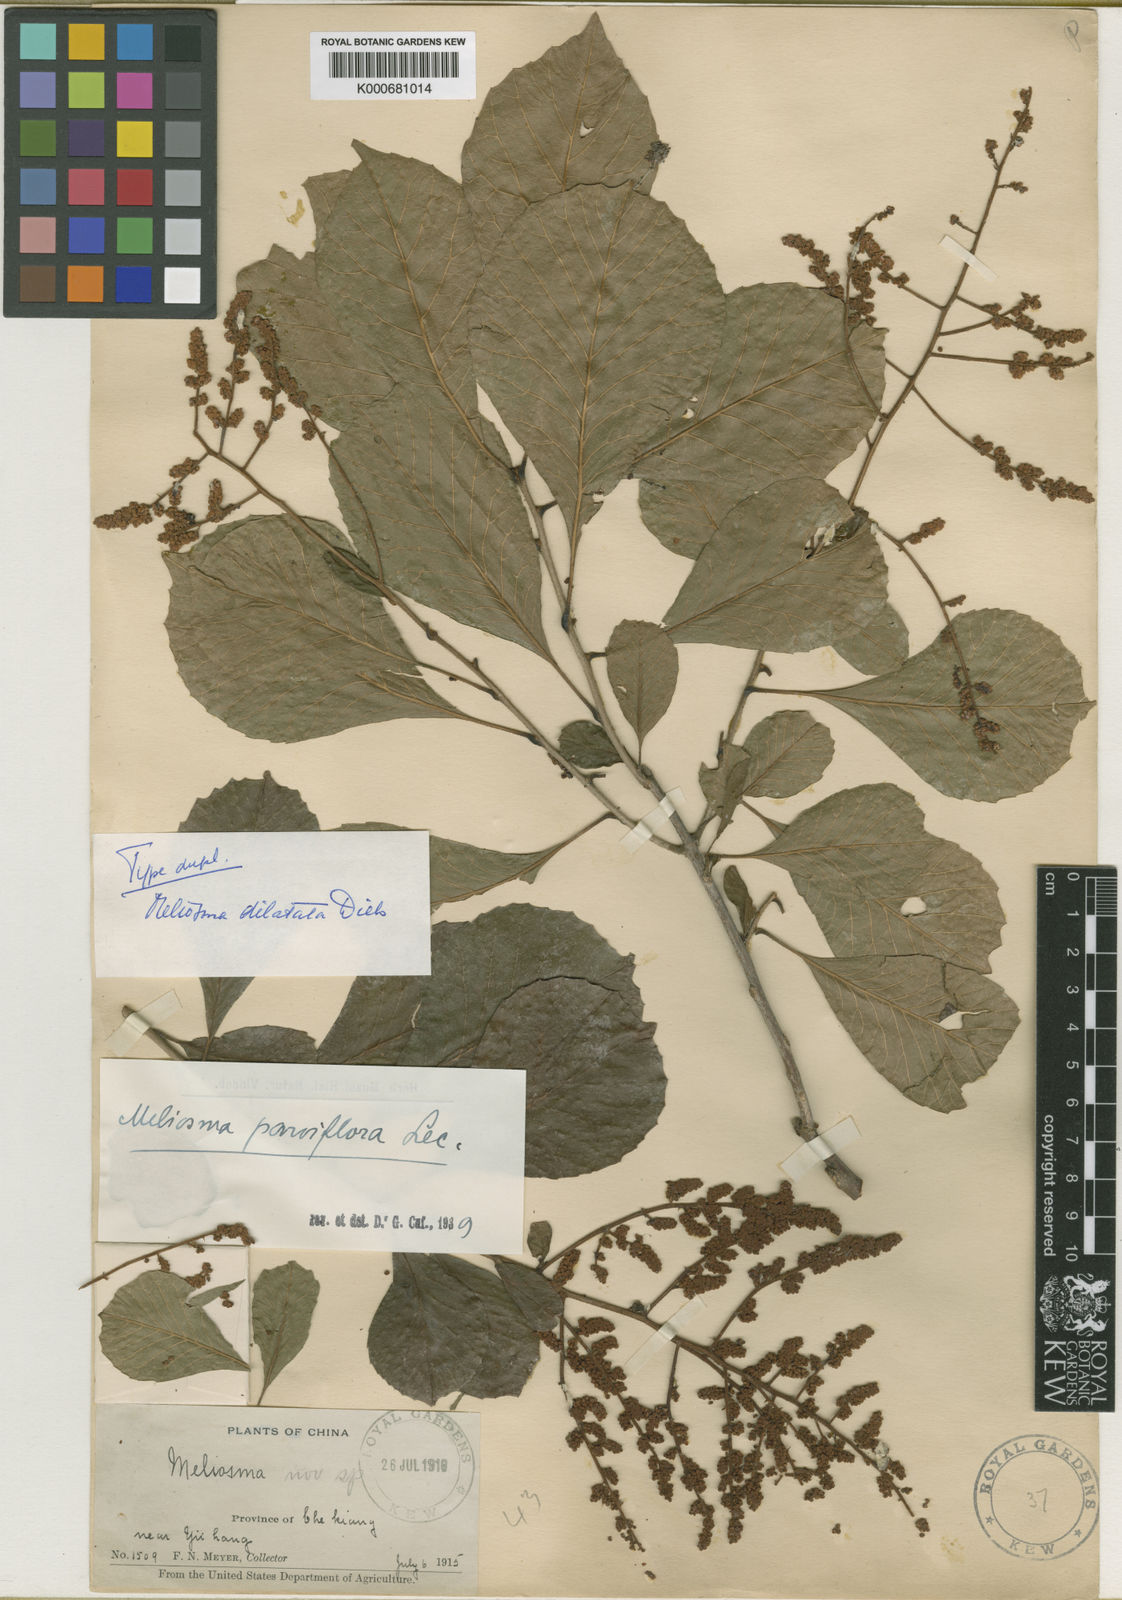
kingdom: Plantae
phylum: Tracheophyta
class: Magnoliopsida
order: Proteales
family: Sabiaceae
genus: Meliosma
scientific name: Meliosma parviflora
